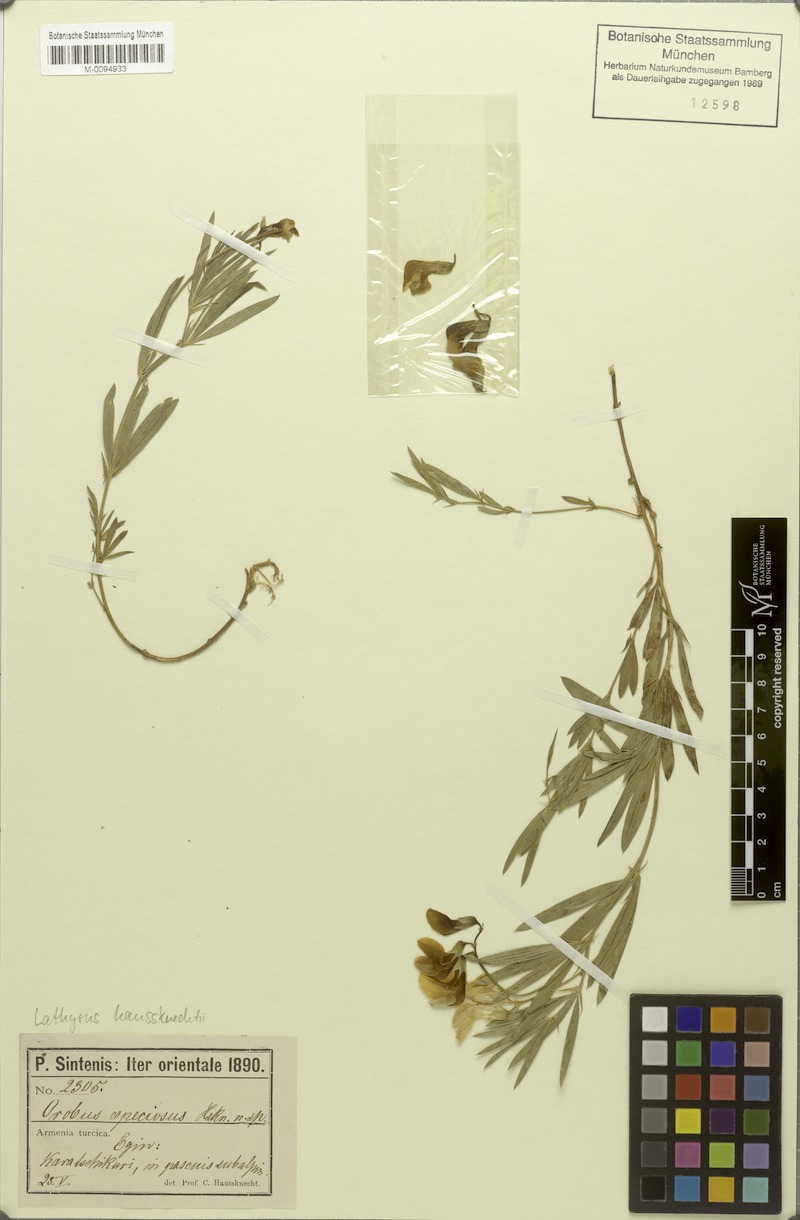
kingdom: Plantae
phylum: Tracheophyta
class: Magnoliopsida
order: Fabales
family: Fabaceae
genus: Lathyrus
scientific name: Lathyrus brachypterus
